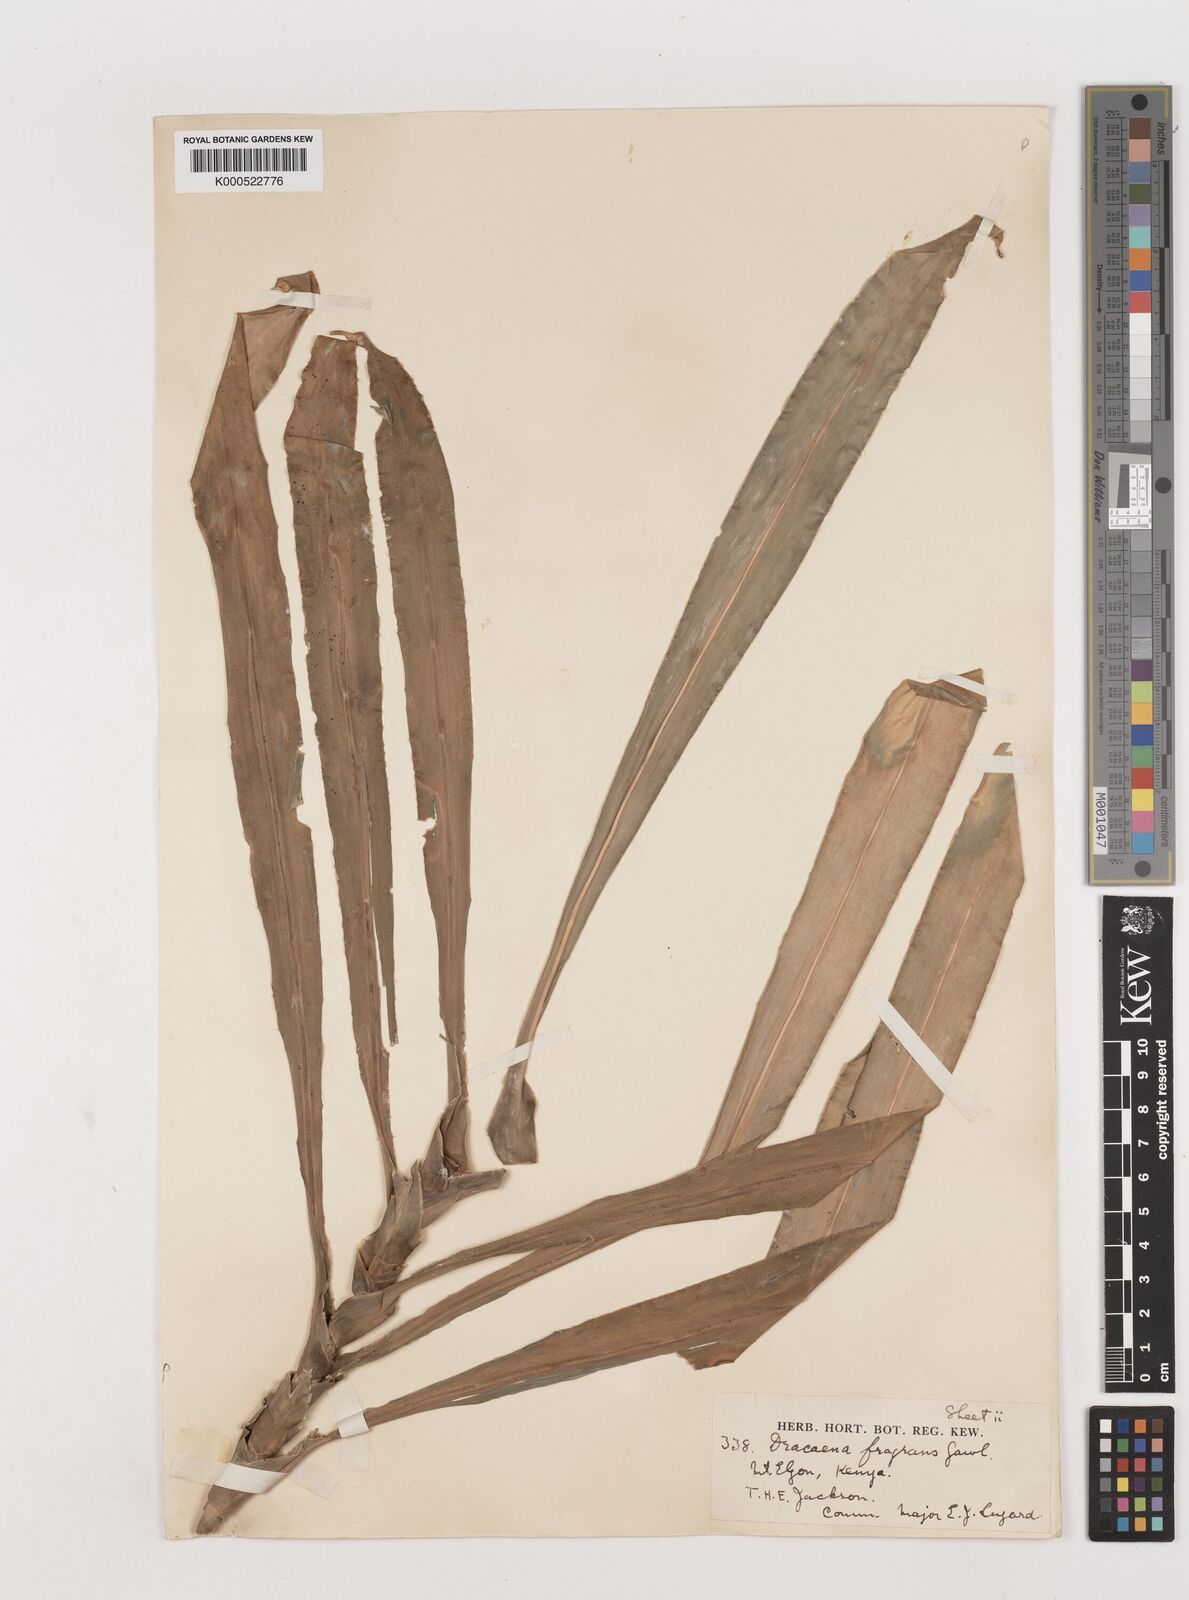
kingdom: Plantae
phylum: Tracheophyta
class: Liliopsida
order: Asparagales
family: Asparagaceae
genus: Dracaena
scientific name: Dracaena fragrans
